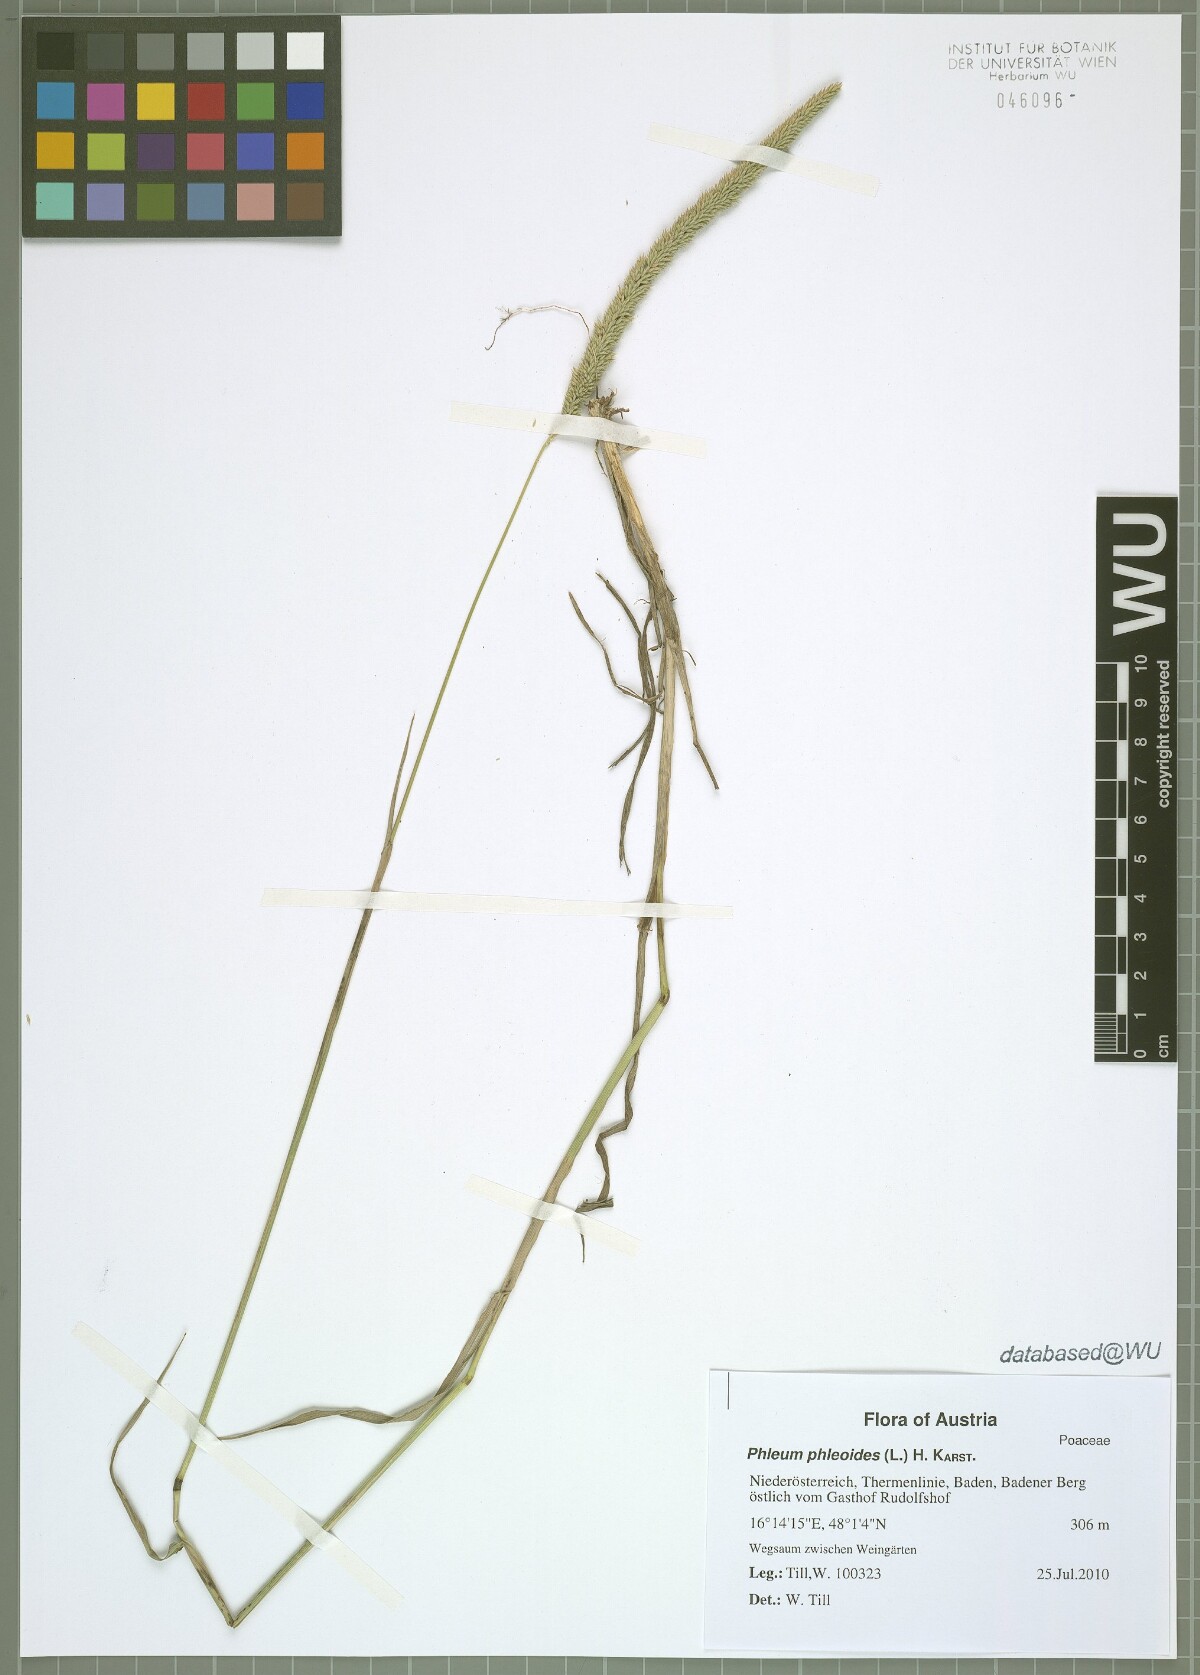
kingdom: Plantae
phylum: Tracheophyta
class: Liliopsida
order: Poales
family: Poaceae
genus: Phleum
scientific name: Phleum phleoides
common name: Purple-stem cat's-tail
